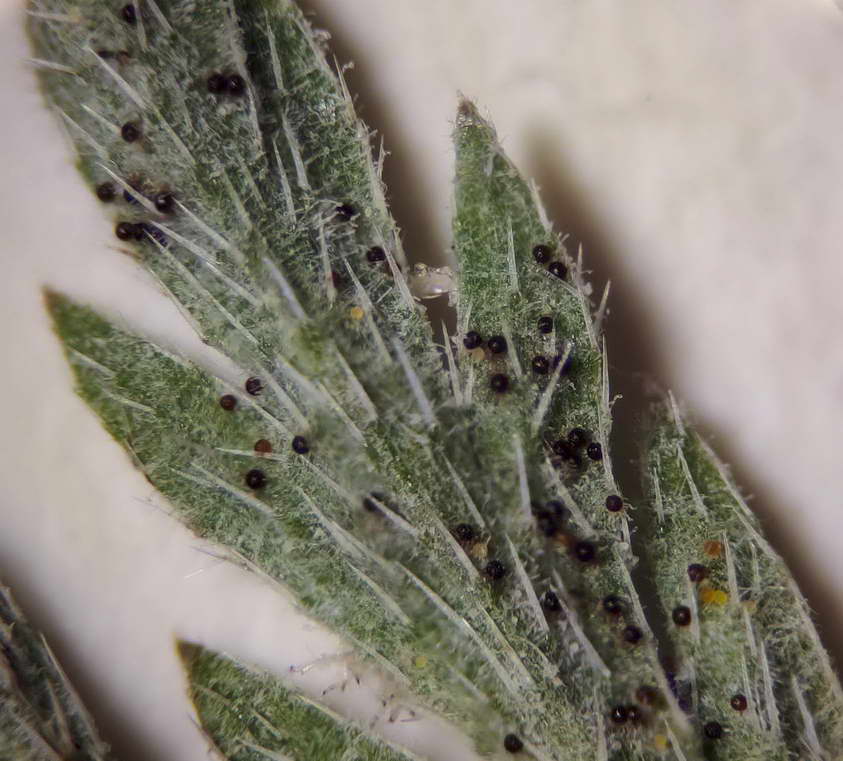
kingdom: Fungi
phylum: Ascomycota
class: Leotiomycetes
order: Helotiales
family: Erysiphaceae
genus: Erysiphe
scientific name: Erysiphe heraclei
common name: skærmplante-meldug
